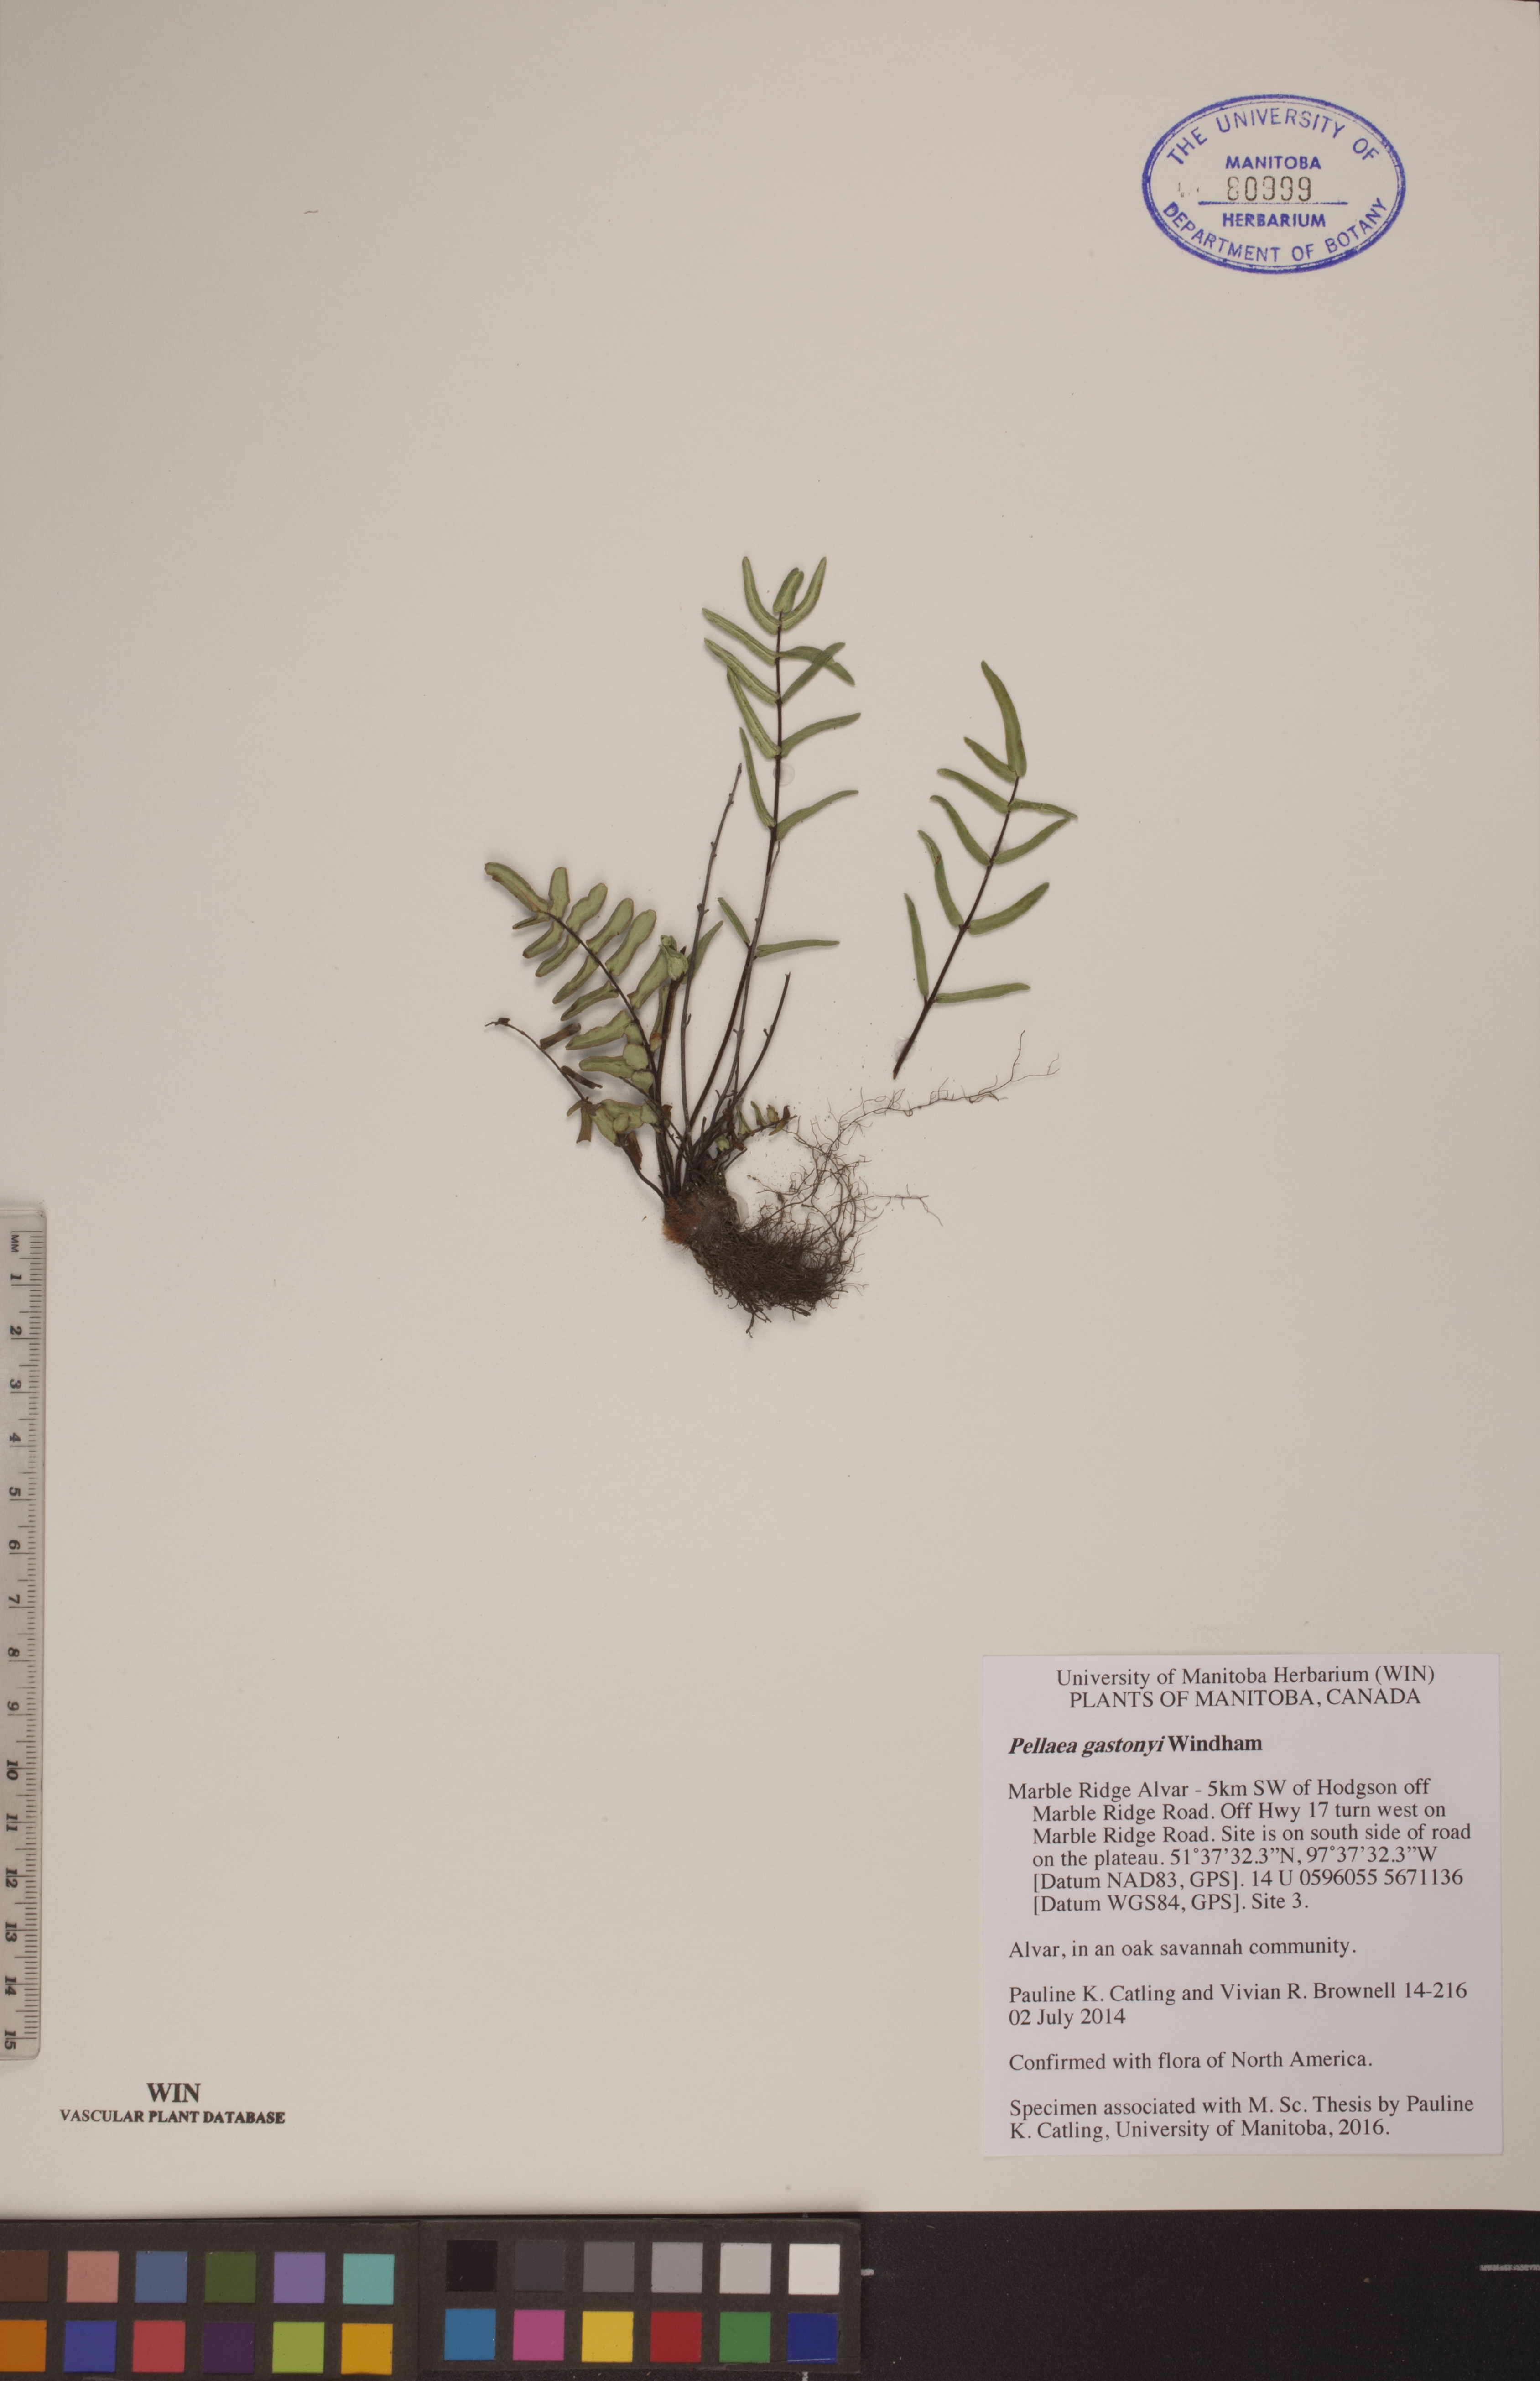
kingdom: Plantae
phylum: Tracheophyta
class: Polypodiopsida
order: Polypodiales
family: Pteridaceae
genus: Pellaea
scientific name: Pellaea gastonyi
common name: Gastony's cliffbrake
